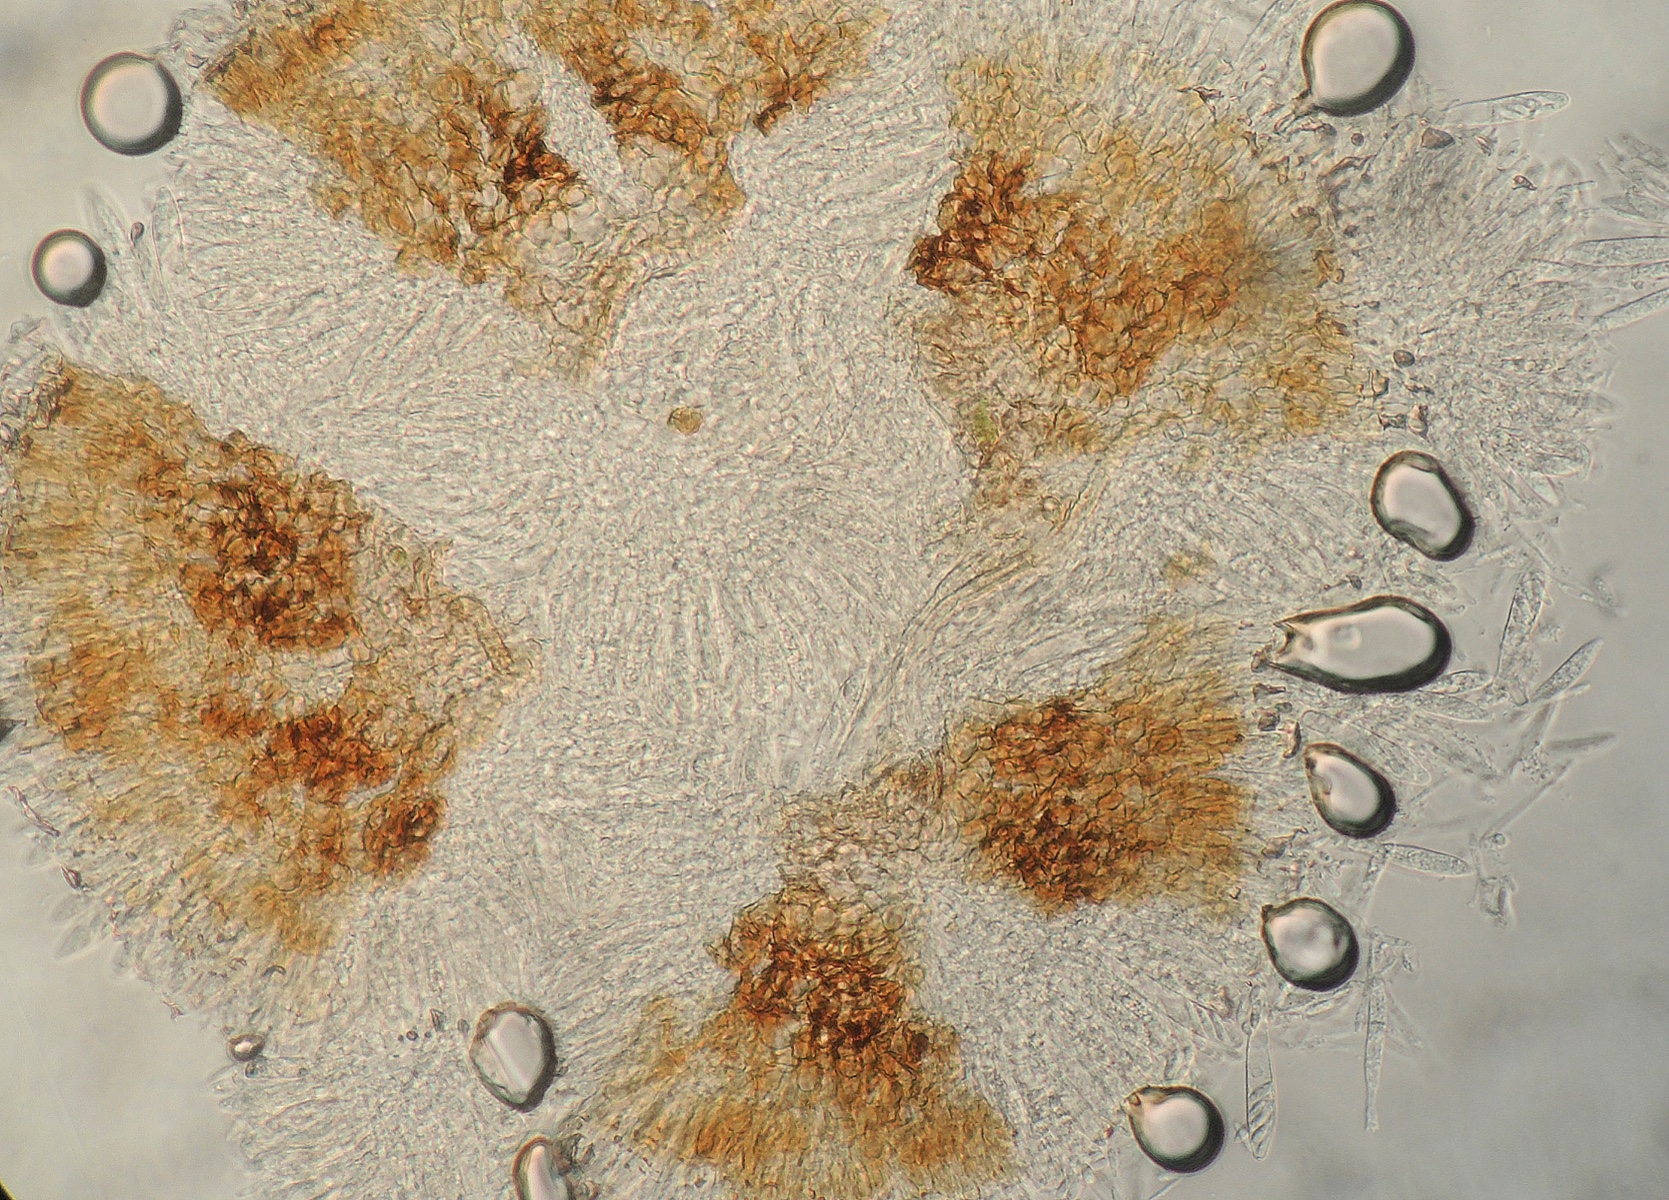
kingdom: Fungi
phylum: Ascomycota
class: Leotiomycetes
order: Helotiales
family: Dermateaceae
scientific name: Dermateaceae
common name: gråskivefamilien
